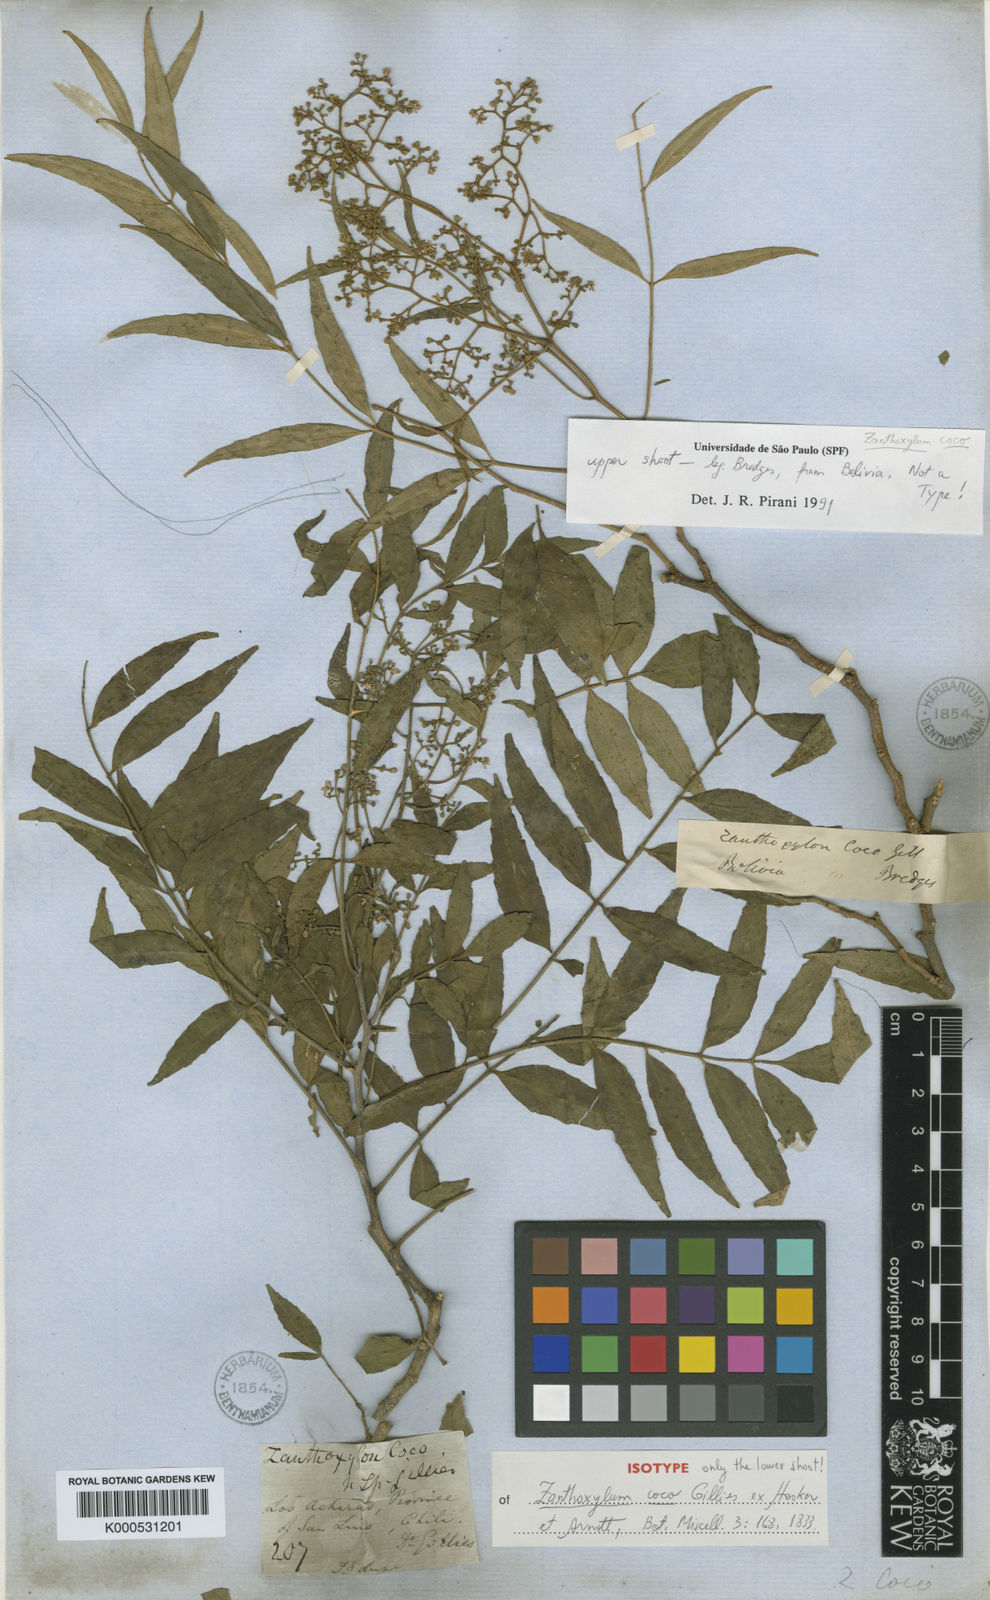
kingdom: Plantae
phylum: Tracheophyta
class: Magnoliopsida
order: Sapindales
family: Rutaceae
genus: Zanthoxylum
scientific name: Zanthoxylum coco
